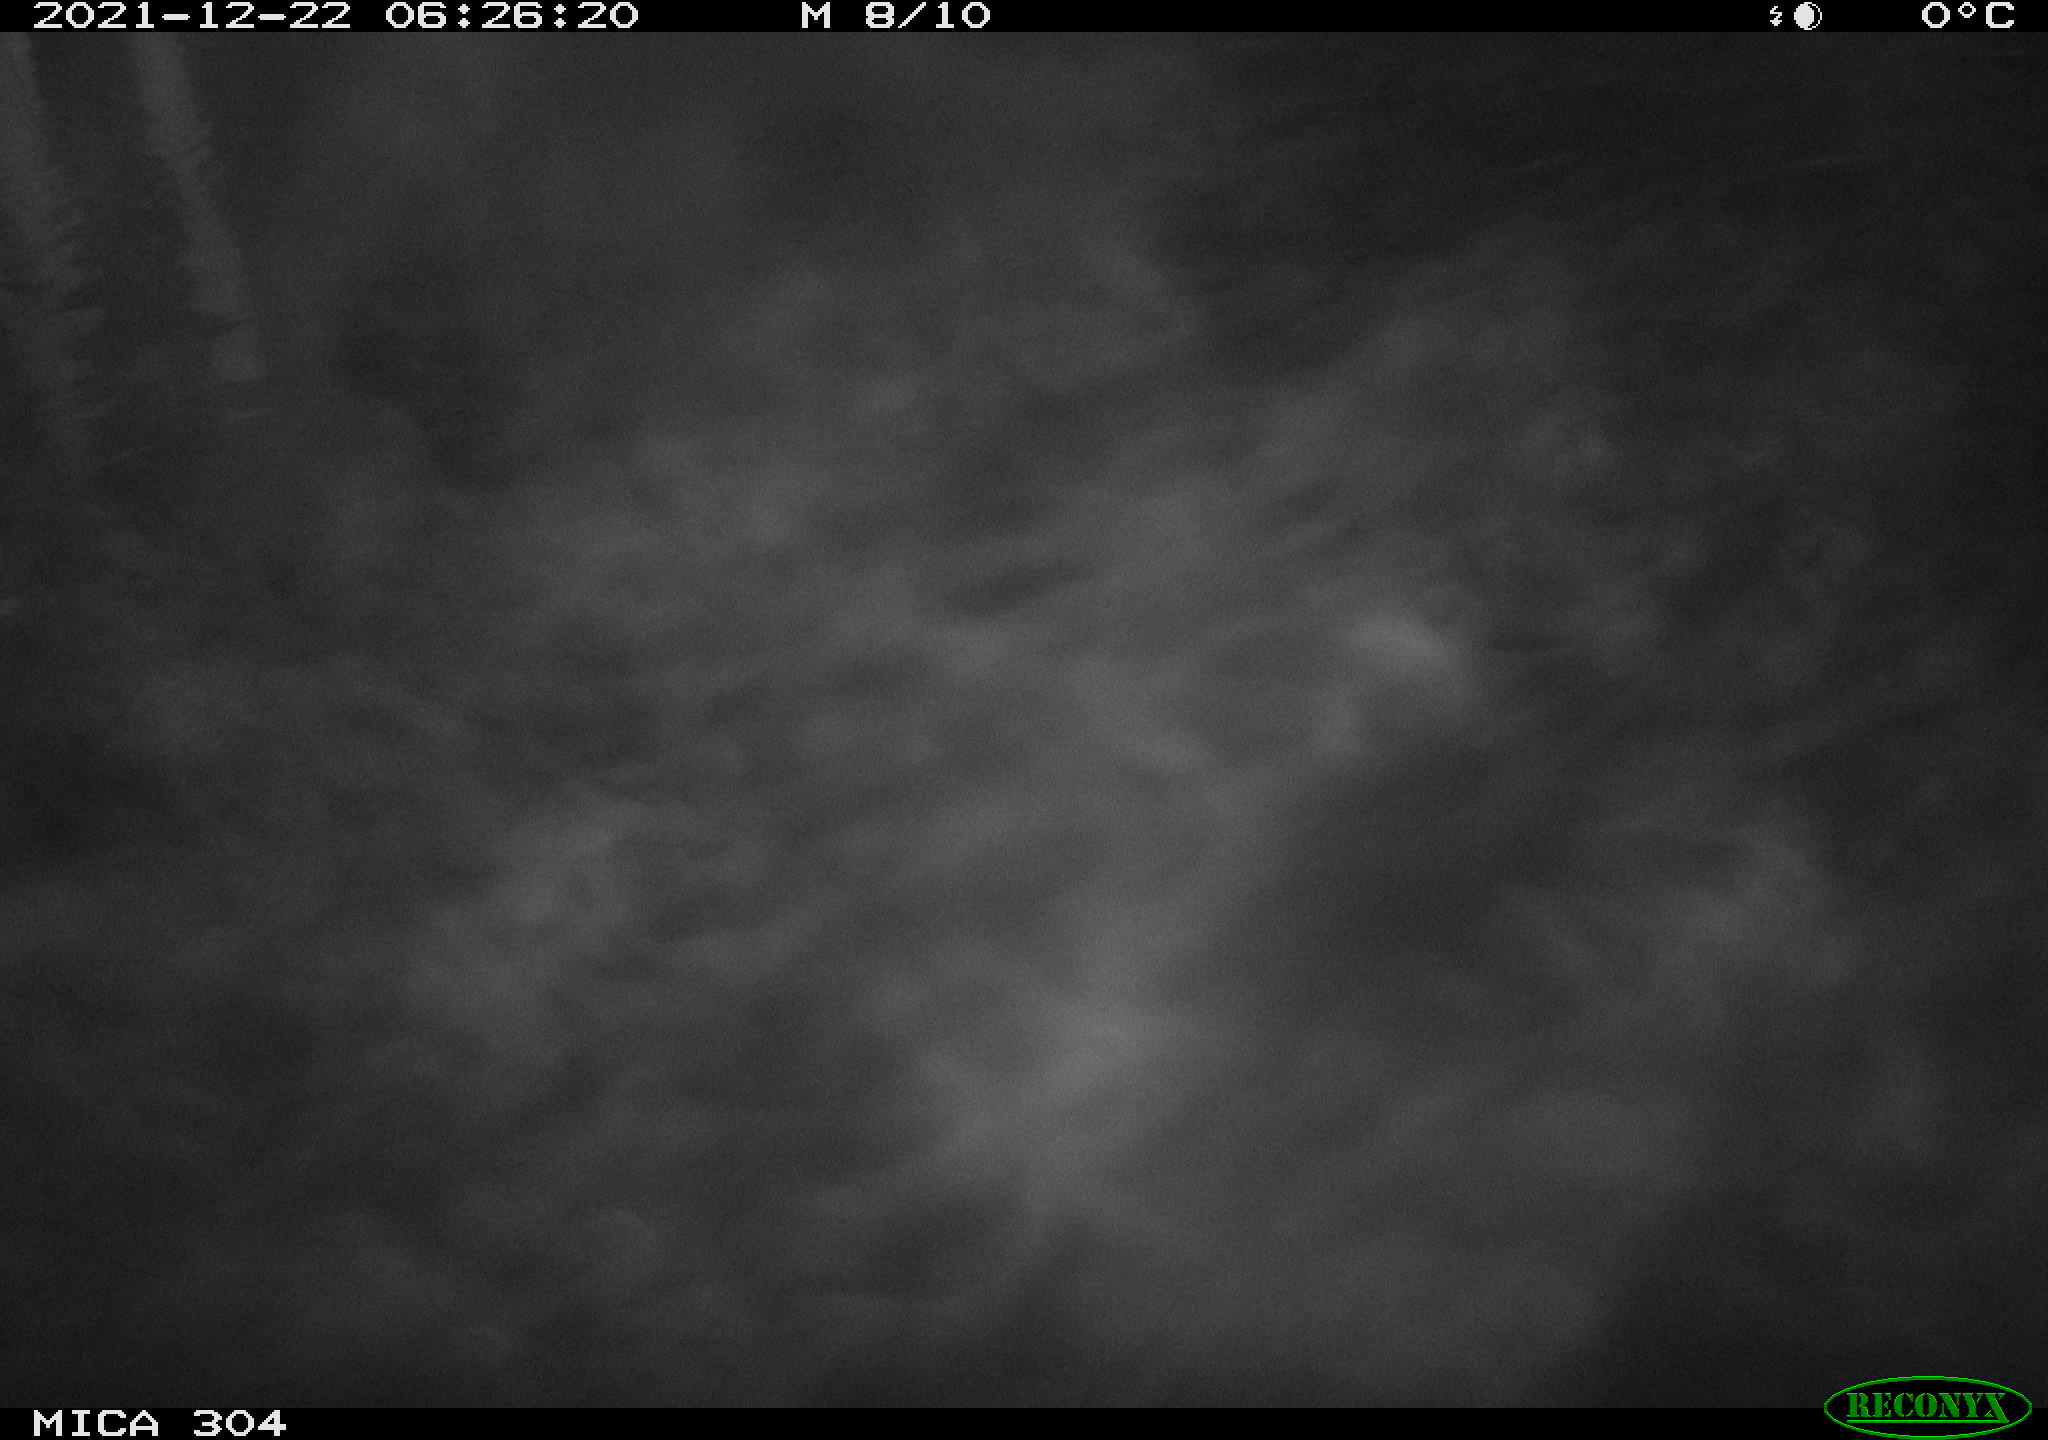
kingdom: Animalia
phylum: Chordata
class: Aves
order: Anseriformes
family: Anatidae
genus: Anas
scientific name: Anas platyrhynchos
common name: Mallard
